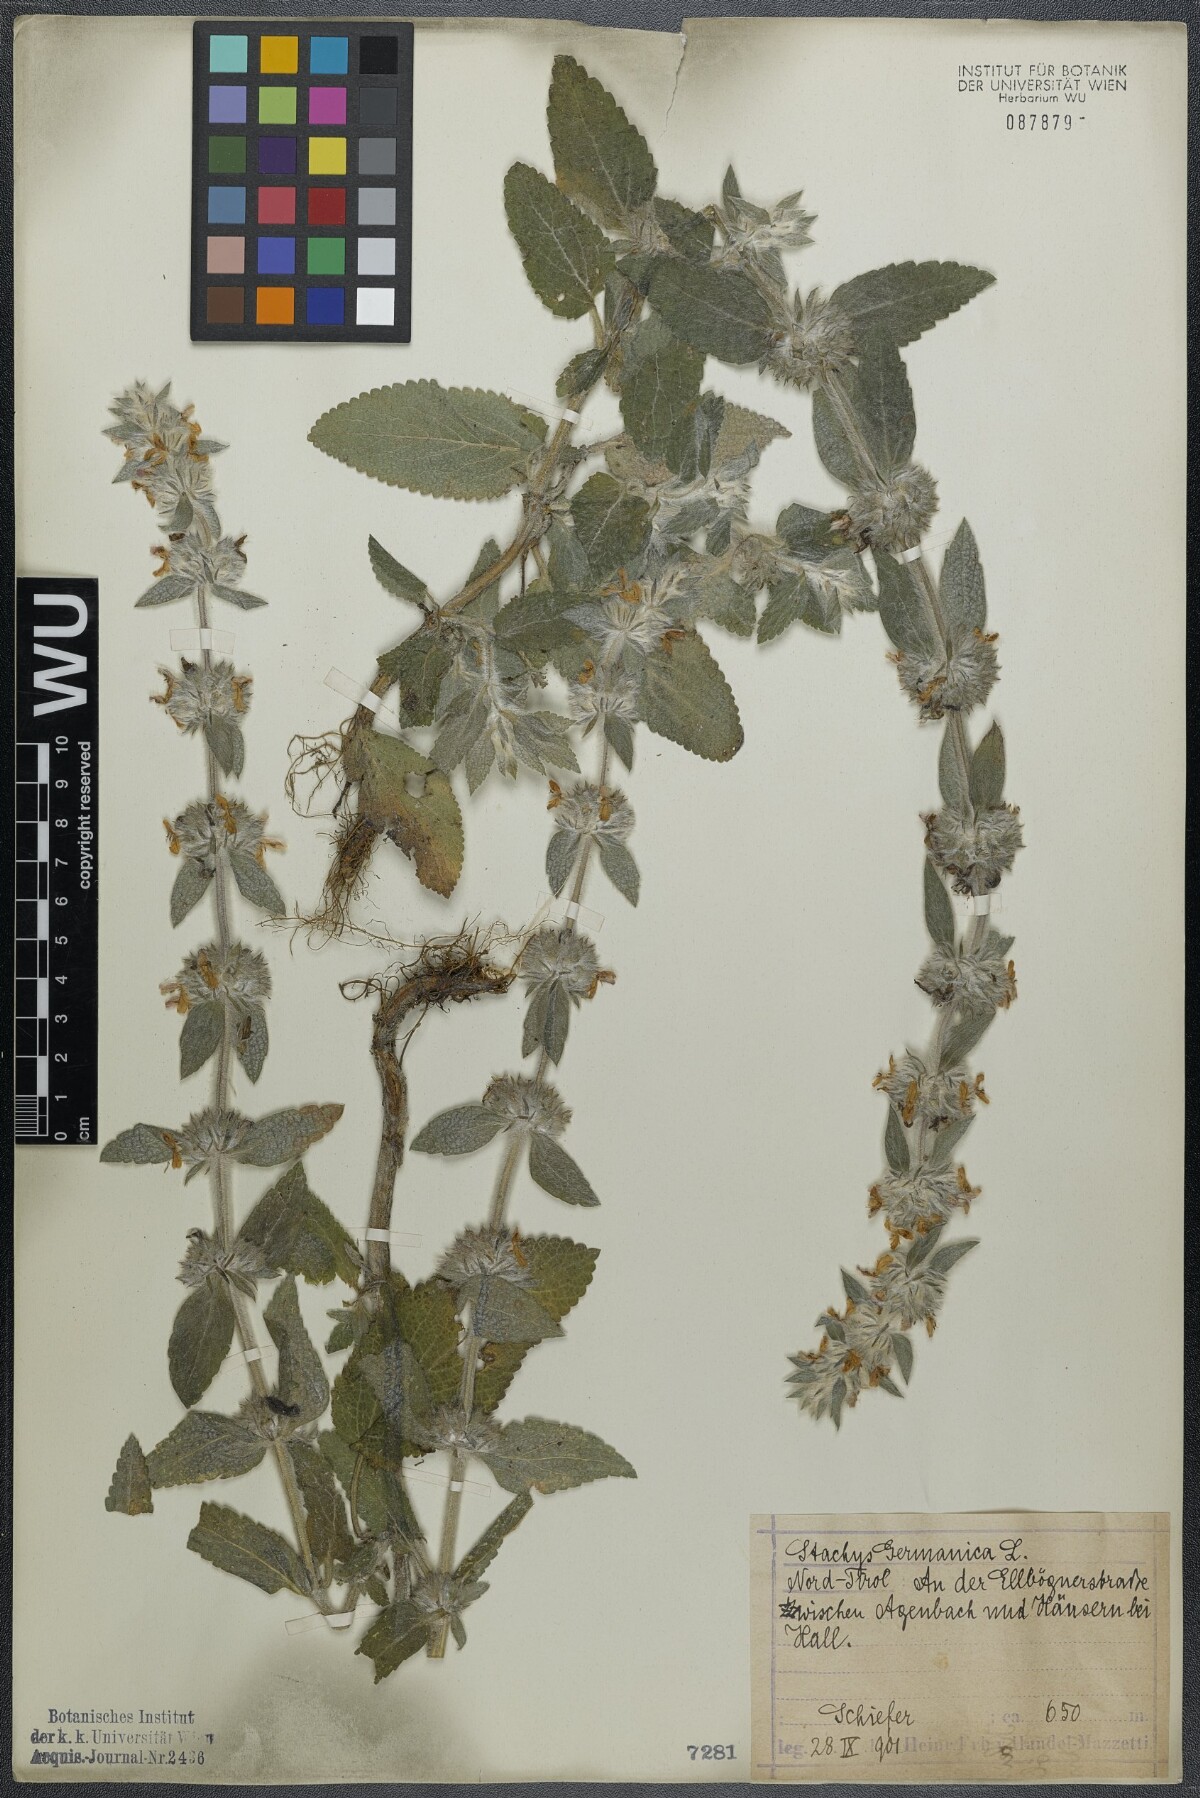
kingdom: Plantae
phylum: Tracheophyta
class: Magnoliopsida
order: Lamiales
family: Lamiaceae
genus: Stachys
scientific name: Stachys germanica
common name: Downy woundwort
